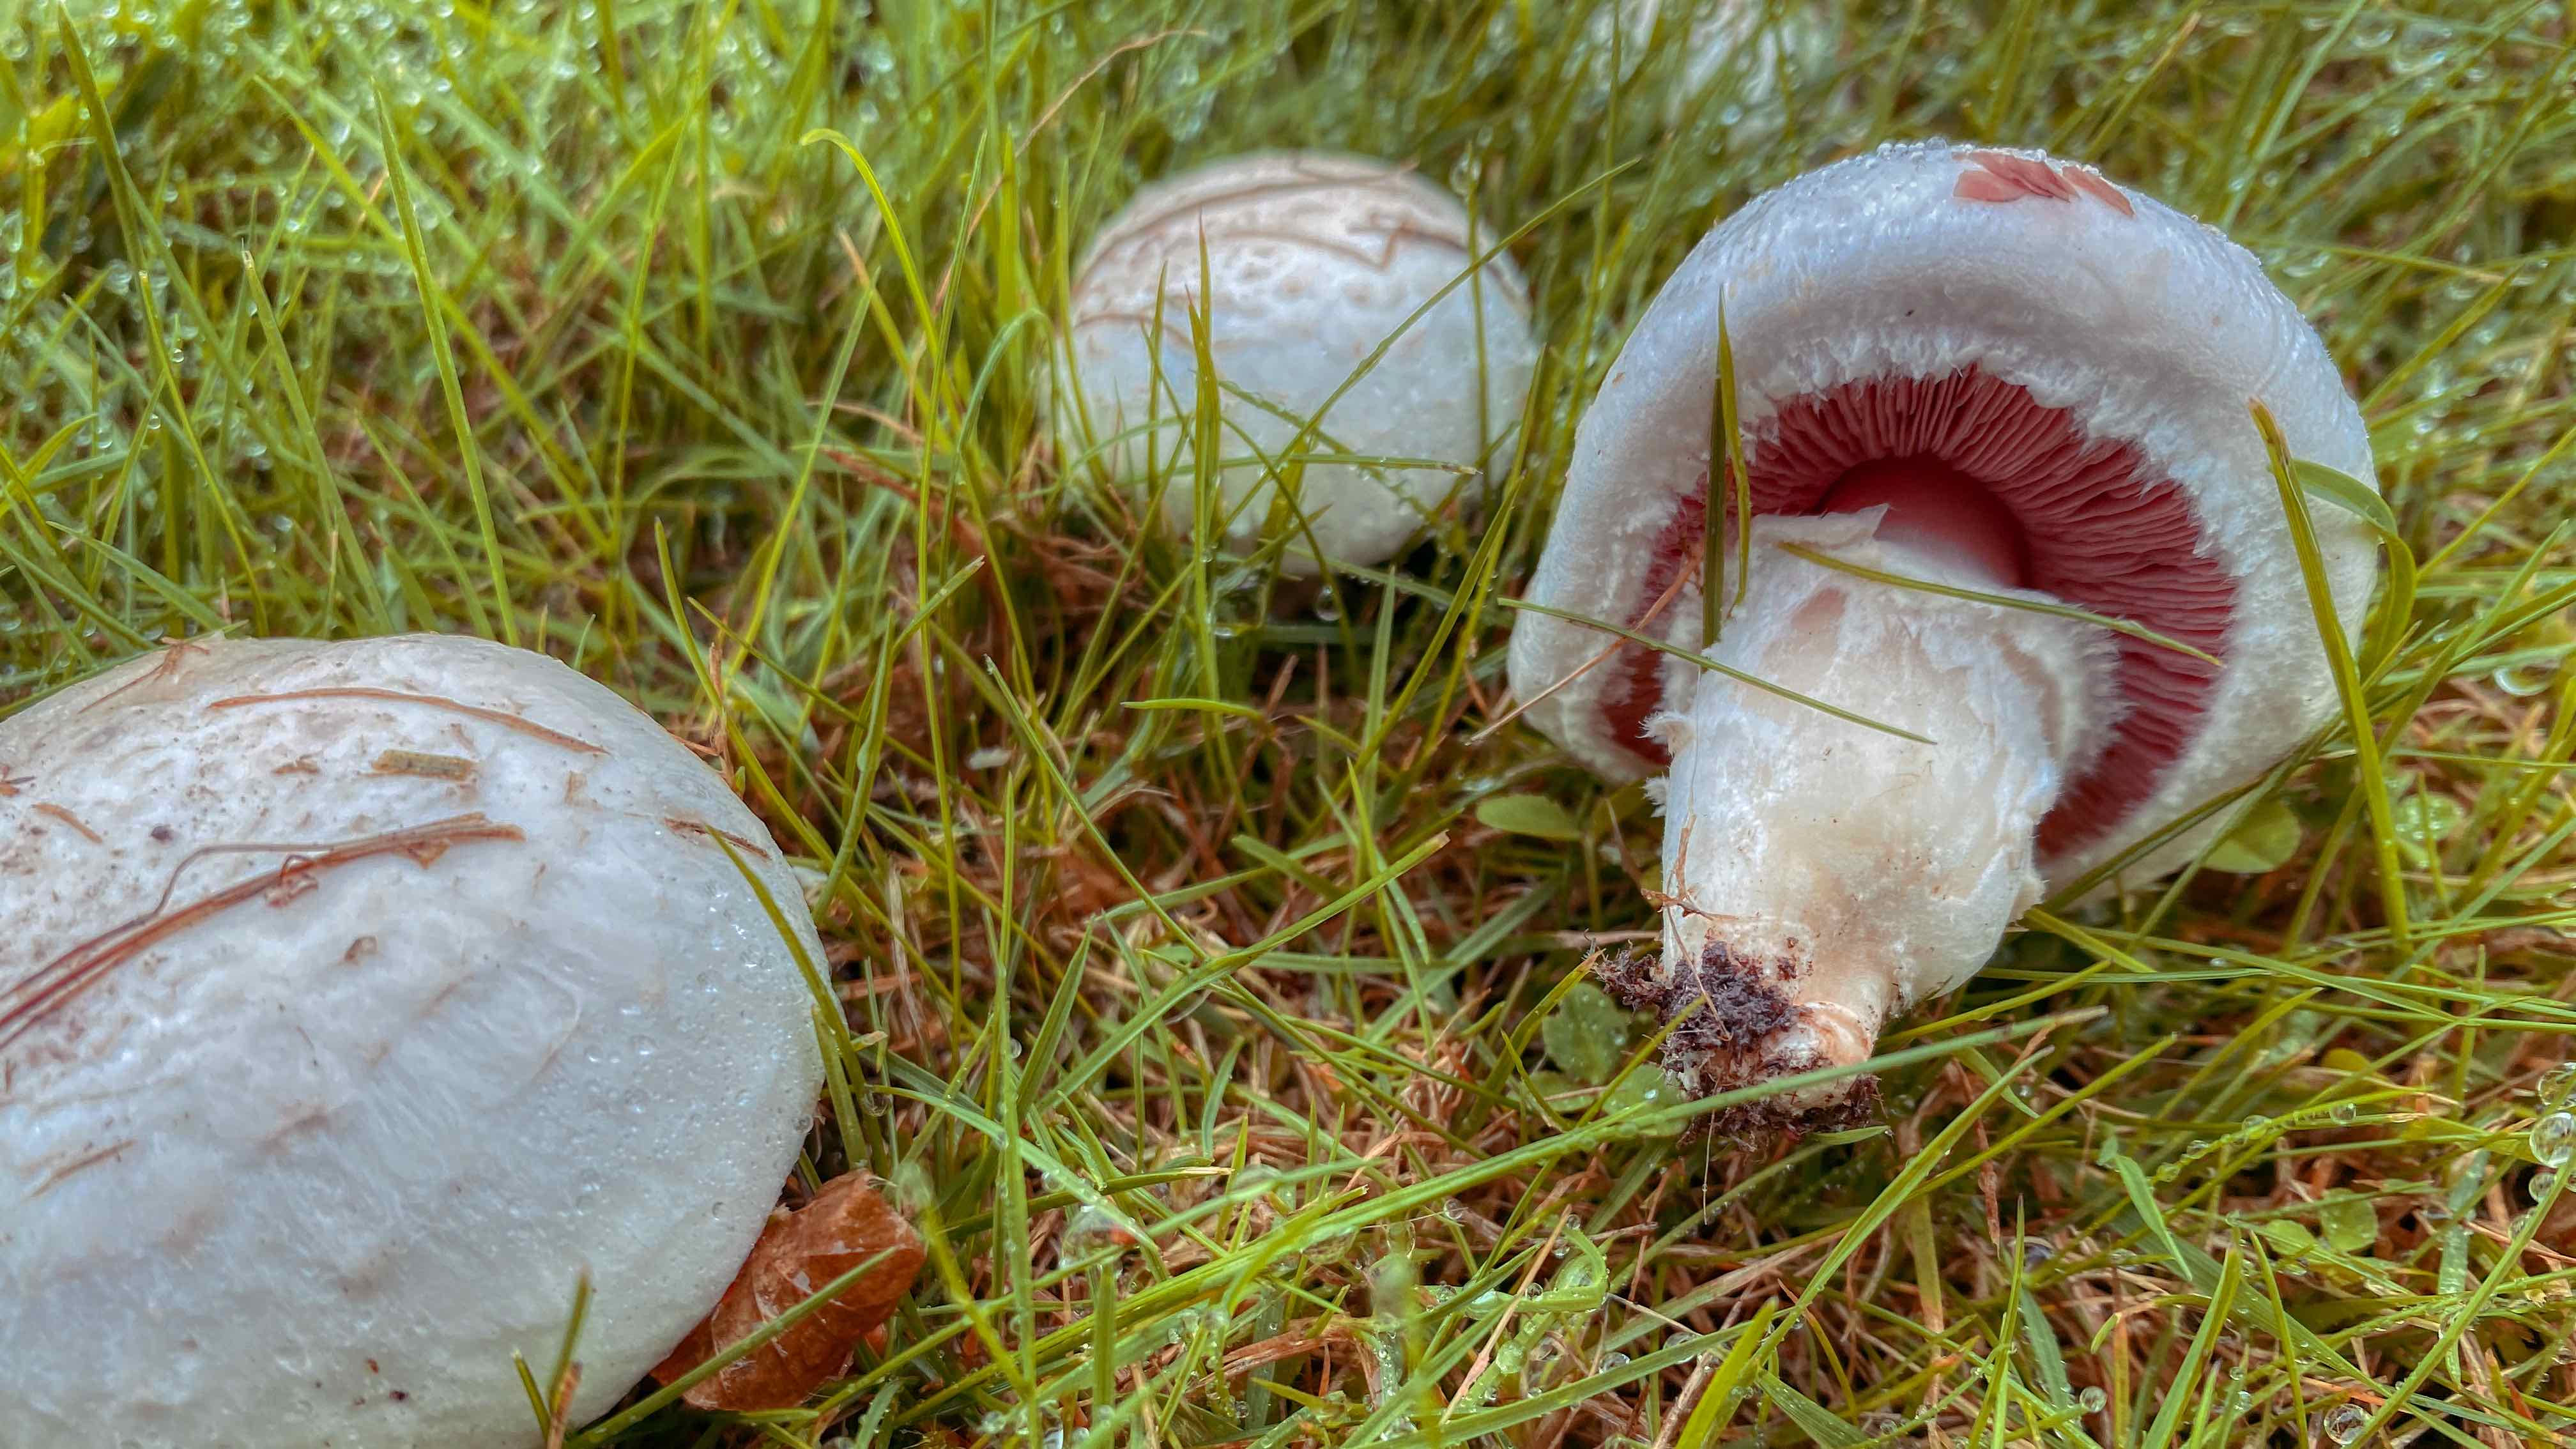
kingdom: Fungi
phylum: Basidiomycota
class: Agaricomycetes
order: Agaricales
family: Agaricaceae
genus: Agaricus
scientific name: Agaricus campestris
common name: mark-champignon
